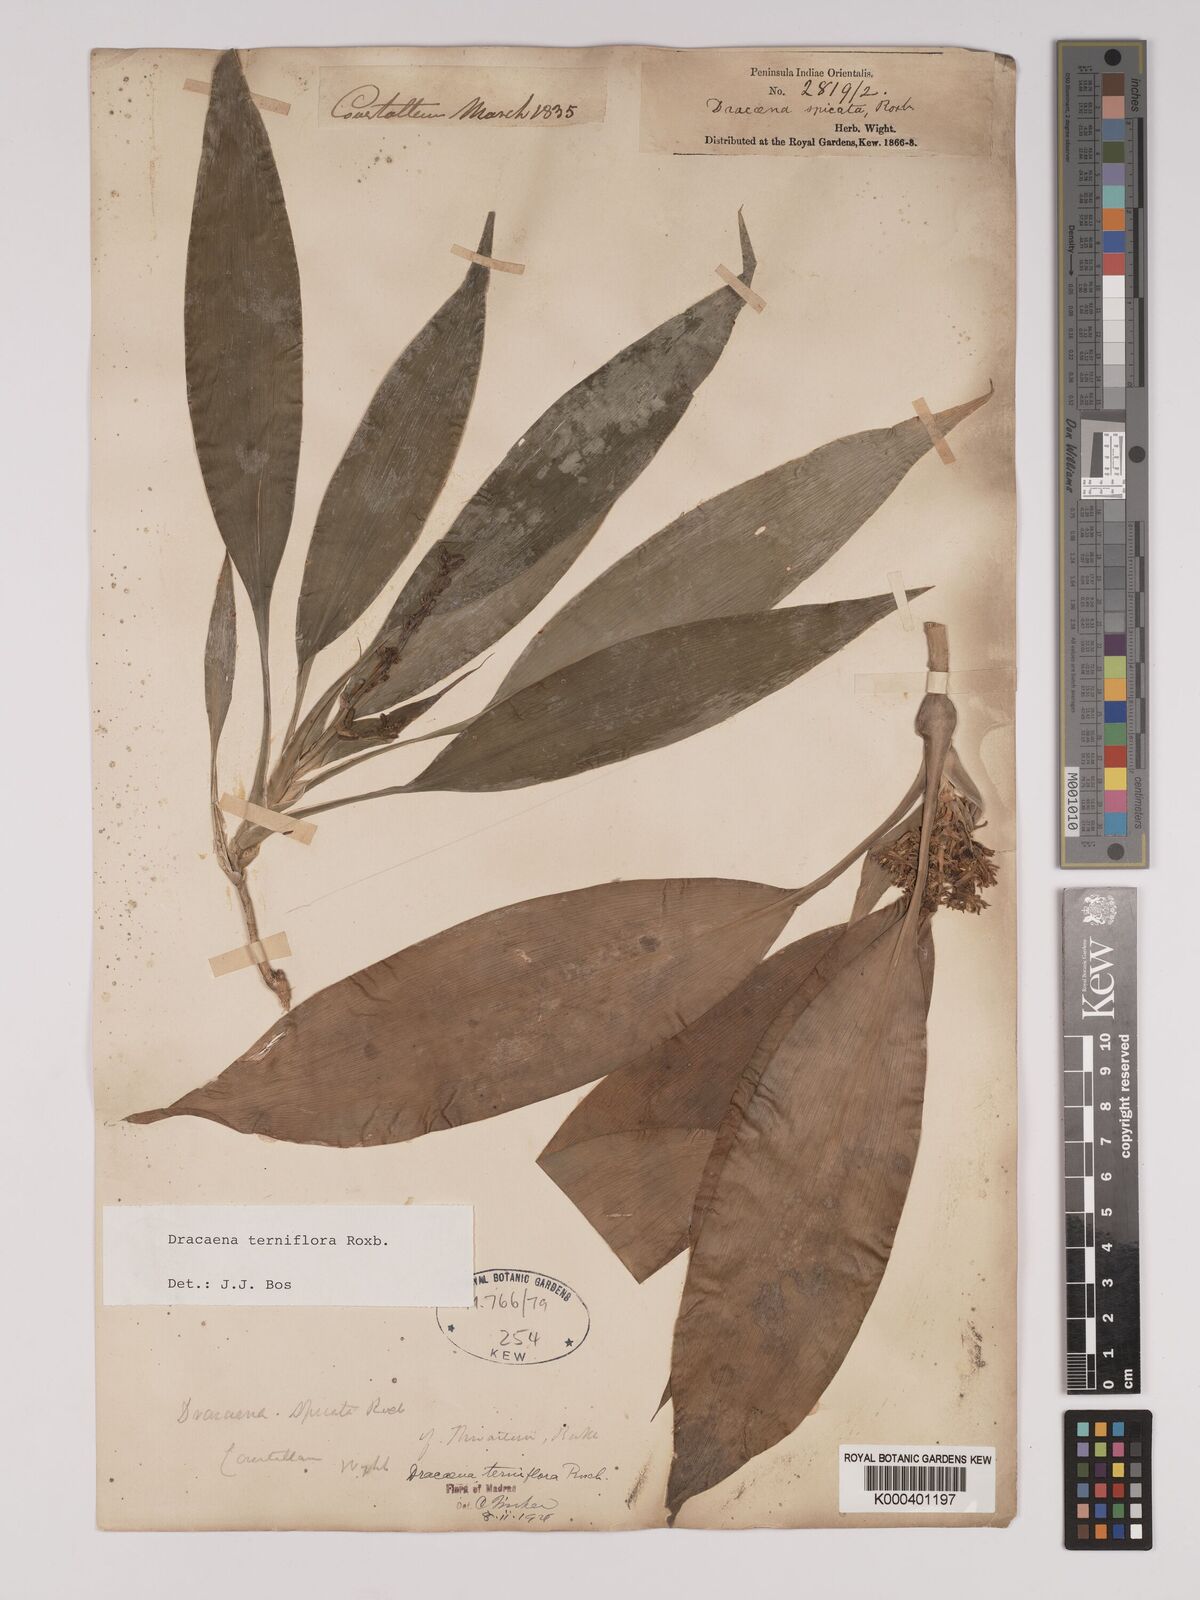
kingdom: Plantae
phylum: Tracheophyta
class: Liliopsida
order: Asparagales
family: Asparagaceae
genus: Dracaena
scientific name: Dracaena terniflora
